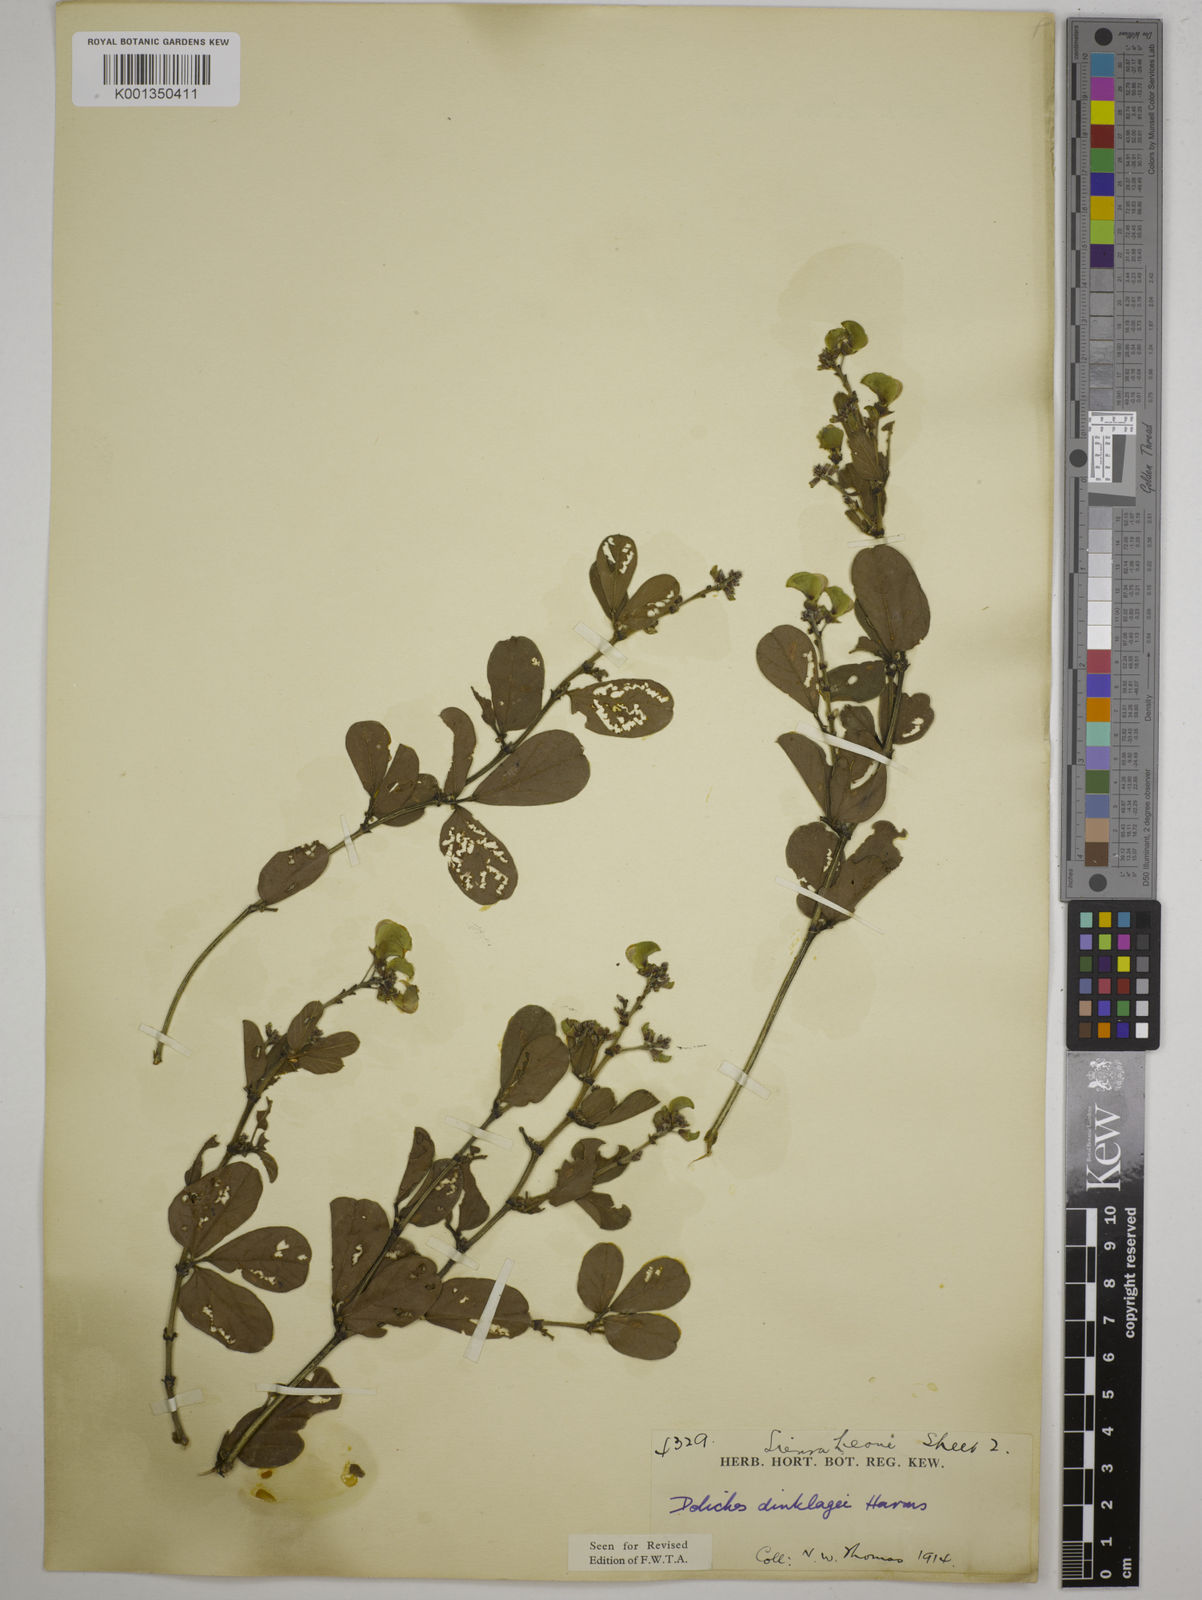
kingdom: Plantae
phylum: Tracheophyta
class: Magnoliopsida
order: Fabales
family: Fabaceae
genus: Dolichos
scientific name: Dolichos dinklagei
